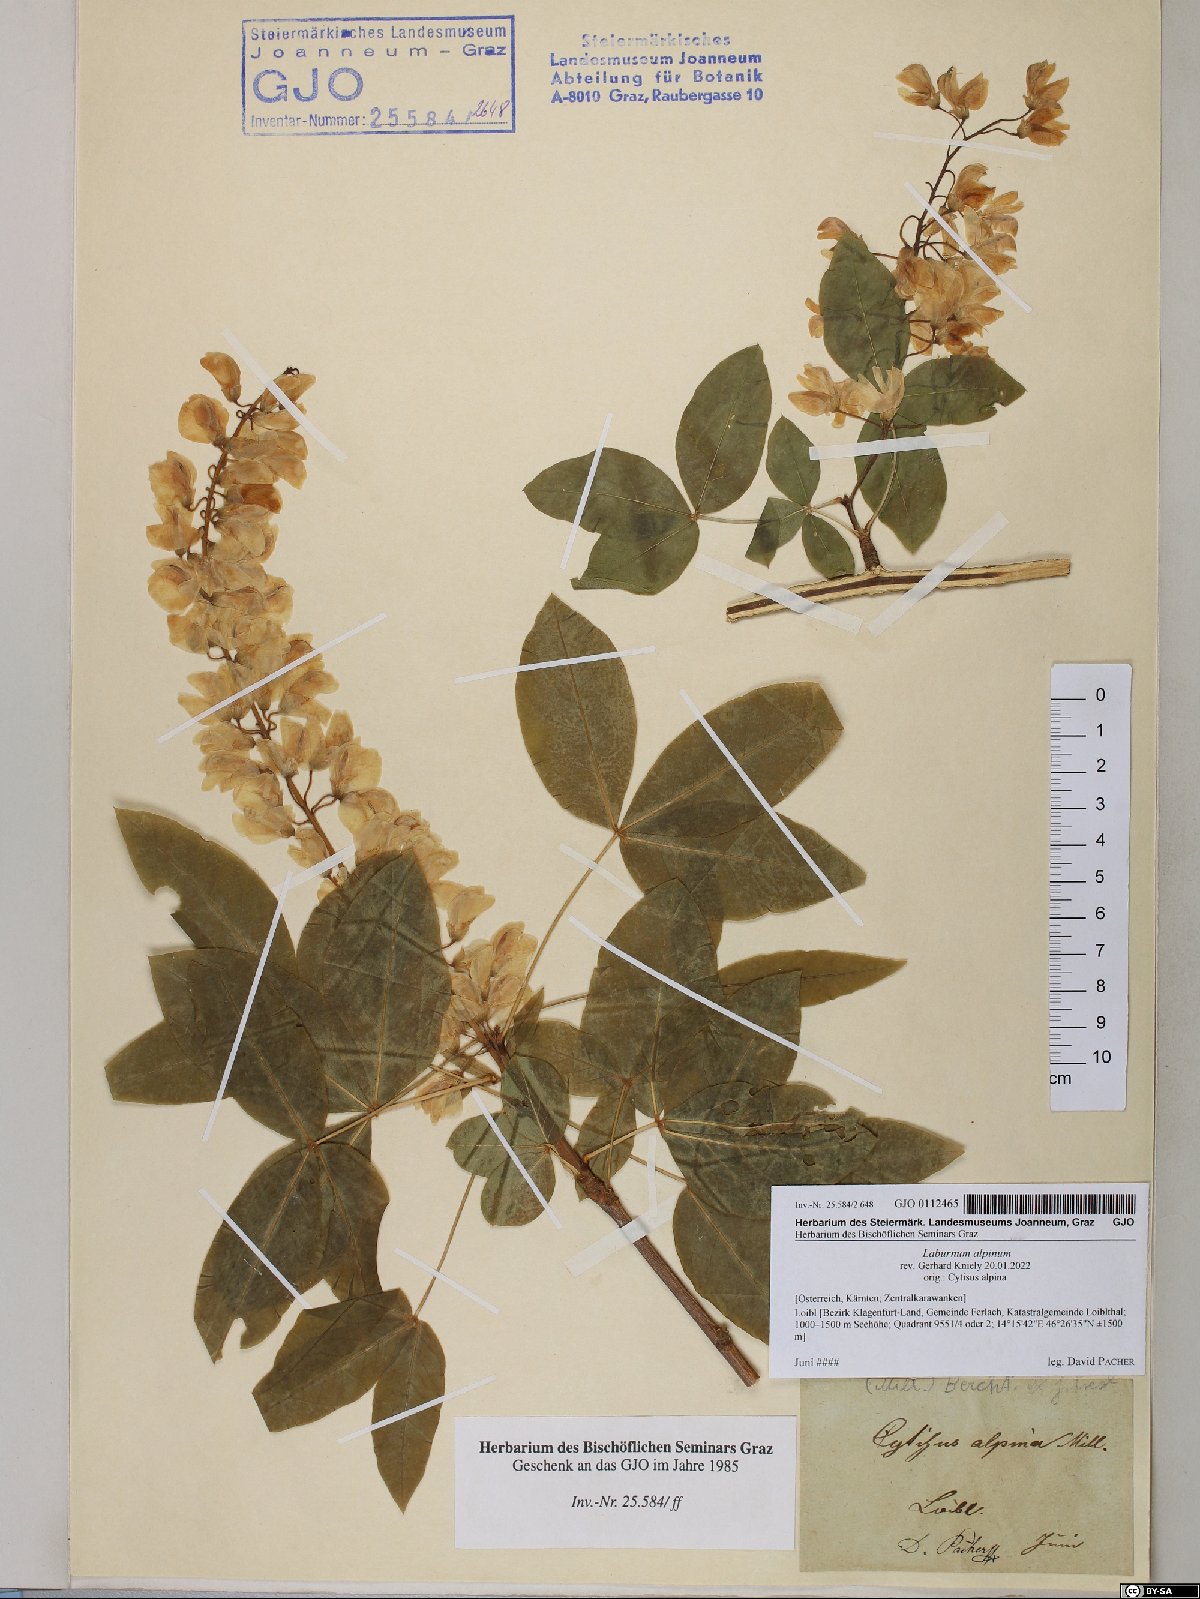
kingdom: Plantae
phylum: Tracheophyta
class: Magnoliopsida
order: Fabales
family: Fabaceae
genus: Laburnum
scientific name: Laburnum alpinum
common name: Scottish laburnum
